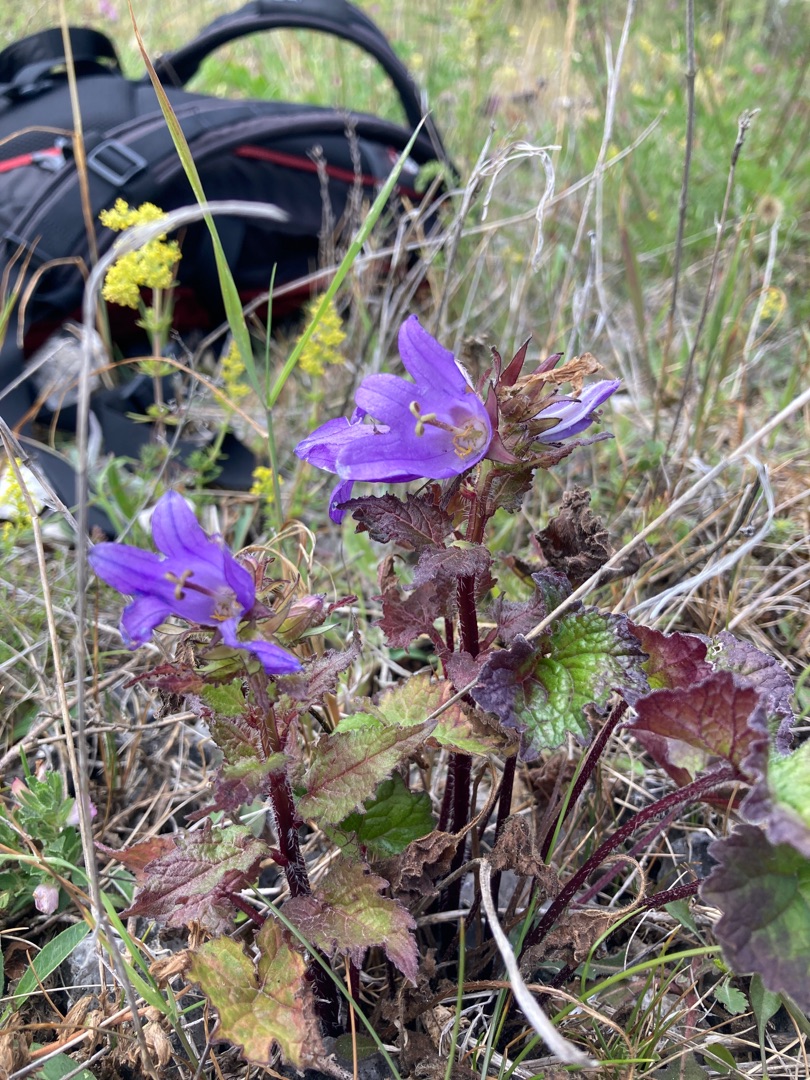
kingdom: Plantae
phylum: Tracheophyta
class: Magnoliopsida
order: Asterales
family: Campanulaceae
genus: Campanula
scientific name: Campanula trachelium
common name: Nælde-klokke
